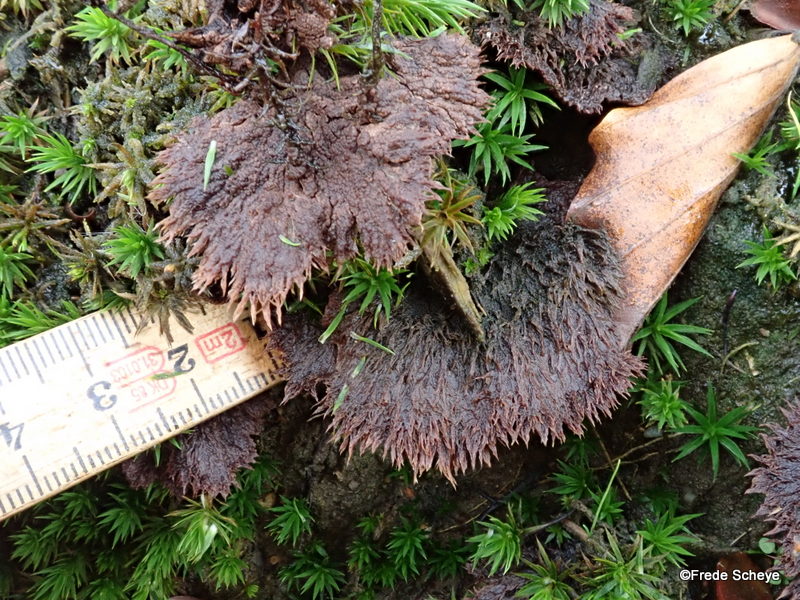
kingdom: Fungi
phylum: Basidiomycota
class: Agaricomycetes
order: Thelephorales
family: Thelephoraceae
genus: Thelephora
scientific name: Thelephora terrestris
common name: fliget frynsesvamp
